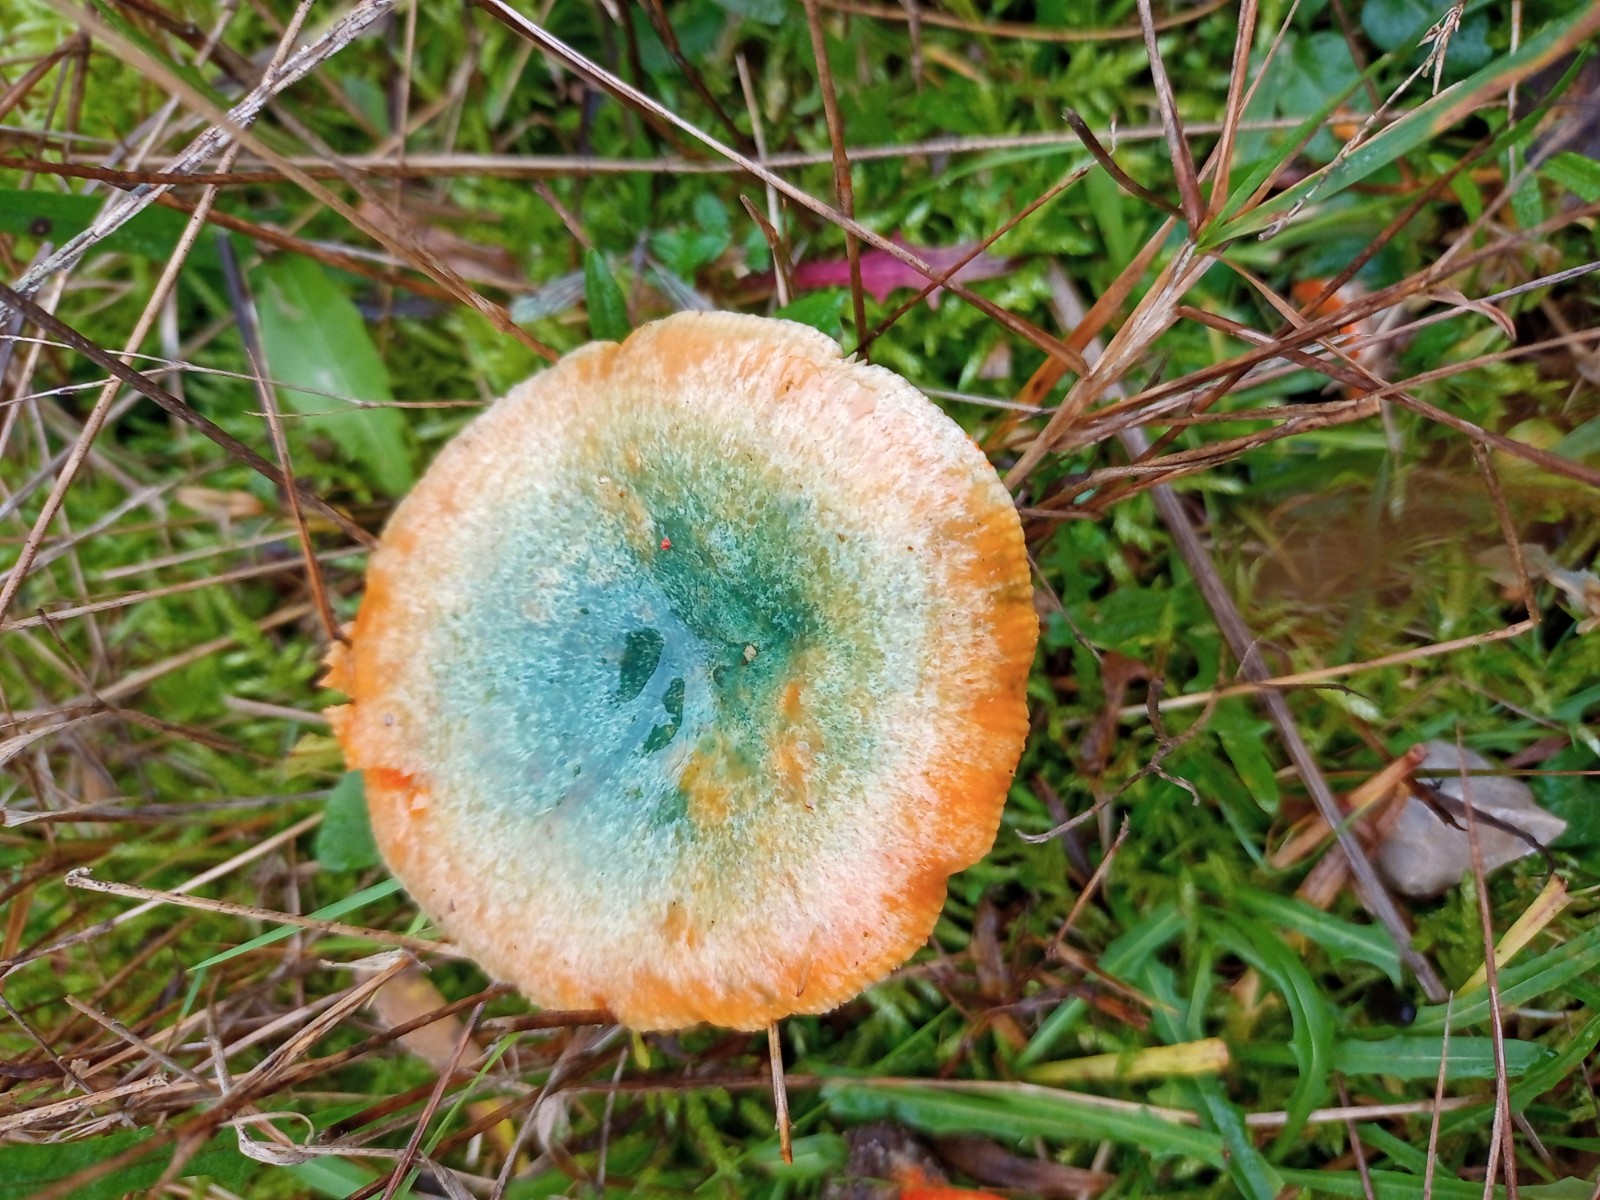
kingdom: Fungi
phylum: Basidiomycota
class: Agaricomycetes
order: Russulales
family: Russulaceae
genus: Lactarius
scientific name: Lactarius deterrimus
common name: gran-mælkehat
